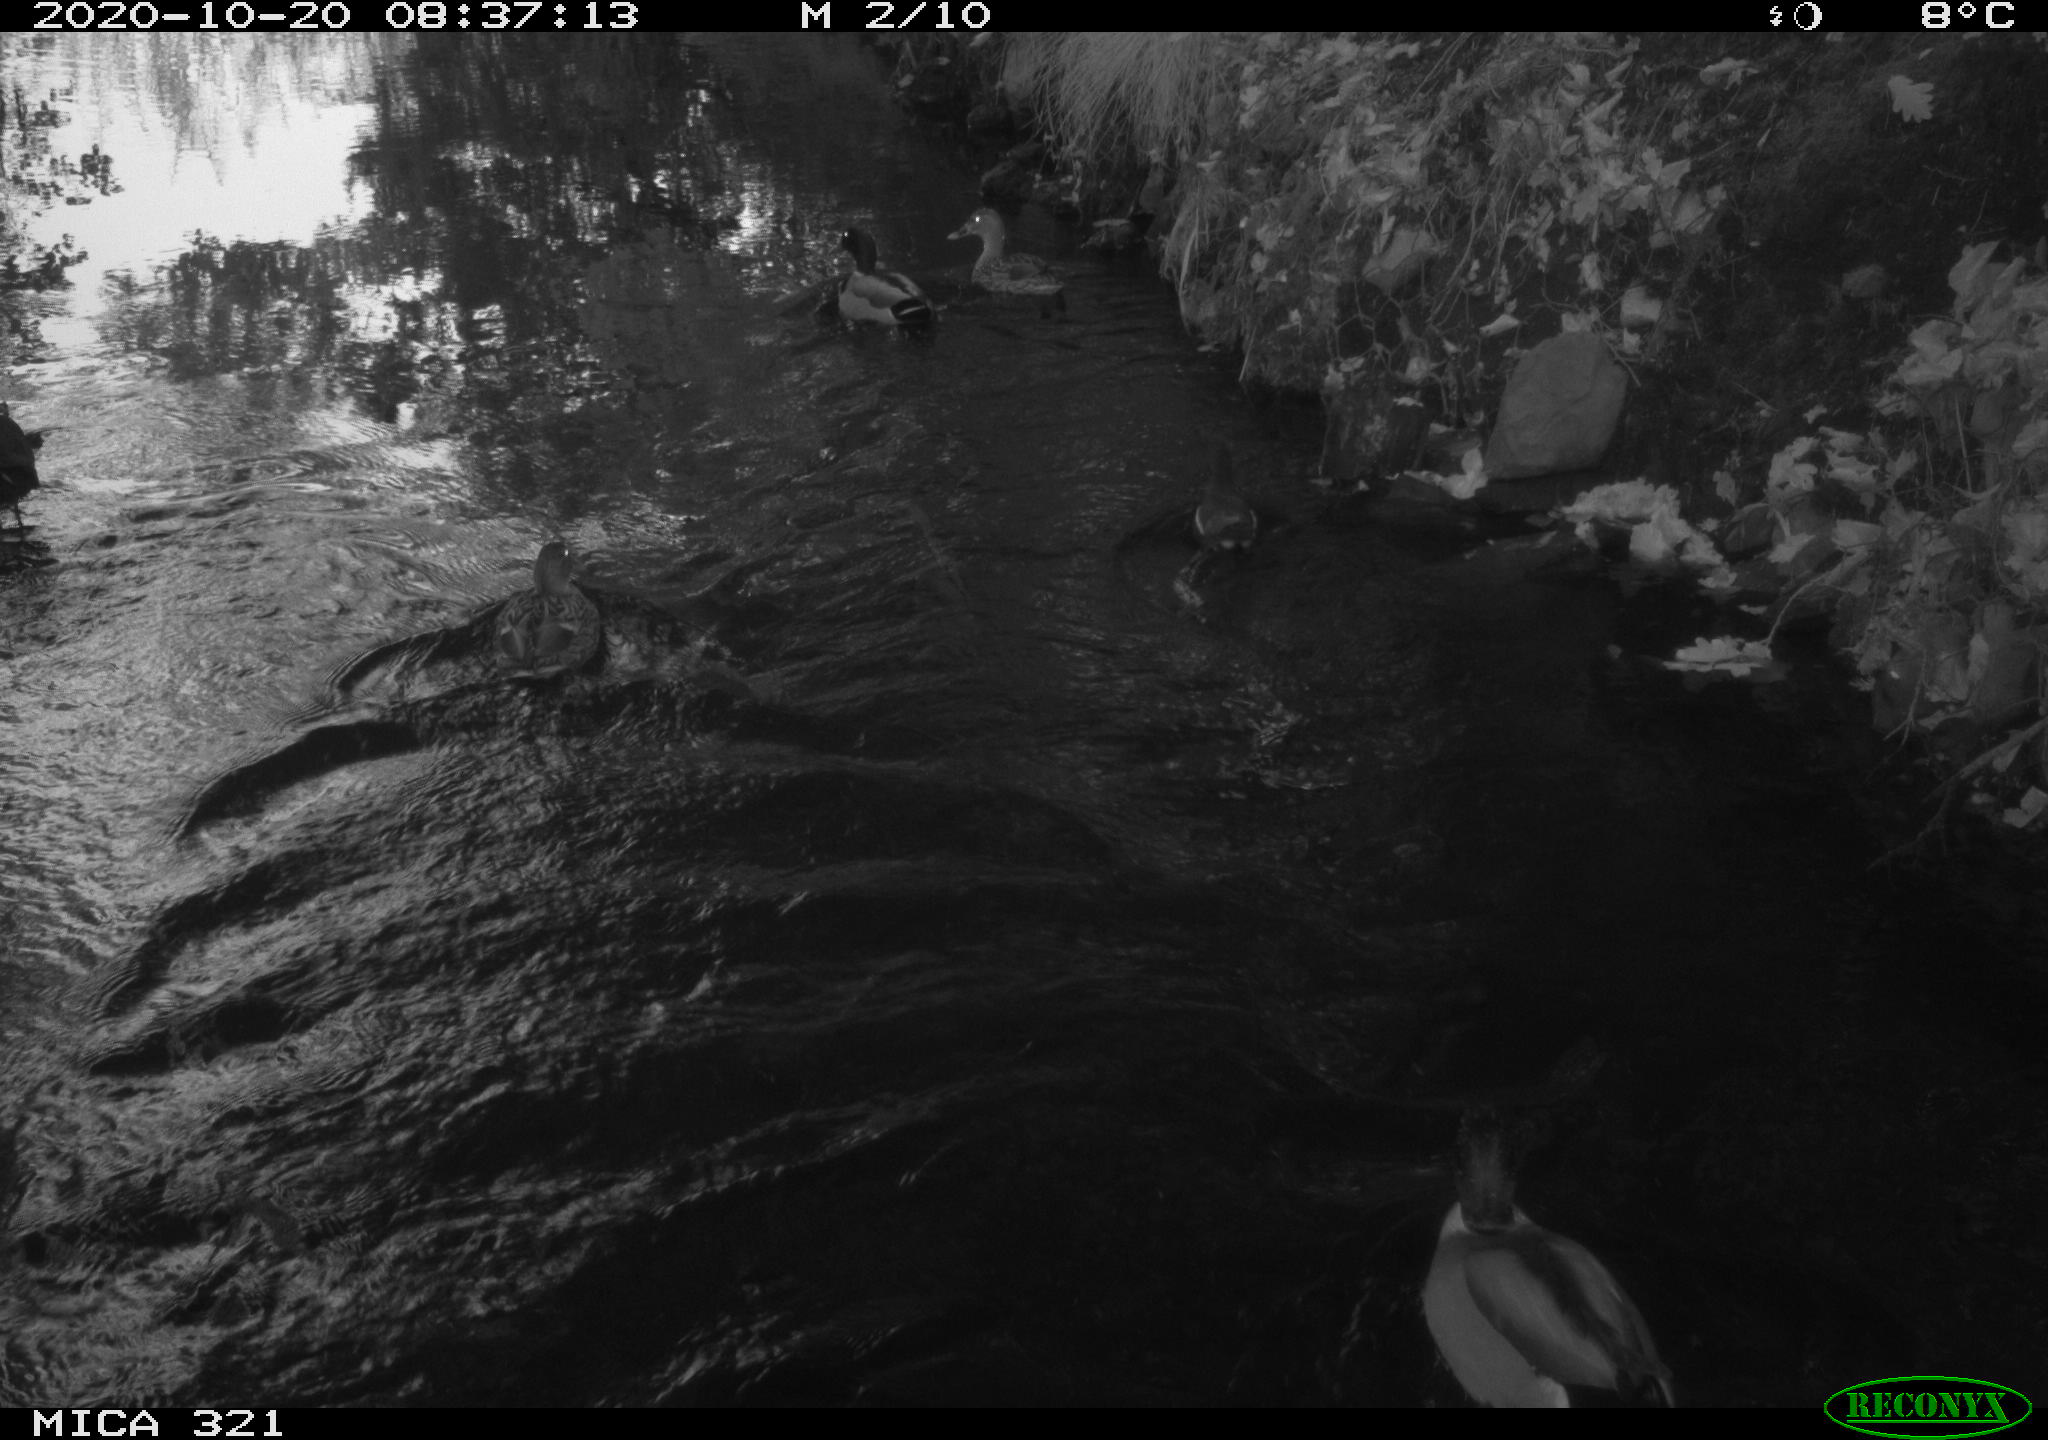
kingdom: Animalia
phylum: Chordata
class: Aves
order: Anseriformes
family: Anatidae
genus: Anas
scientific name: Anas platyrhynchos
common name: Mallard
